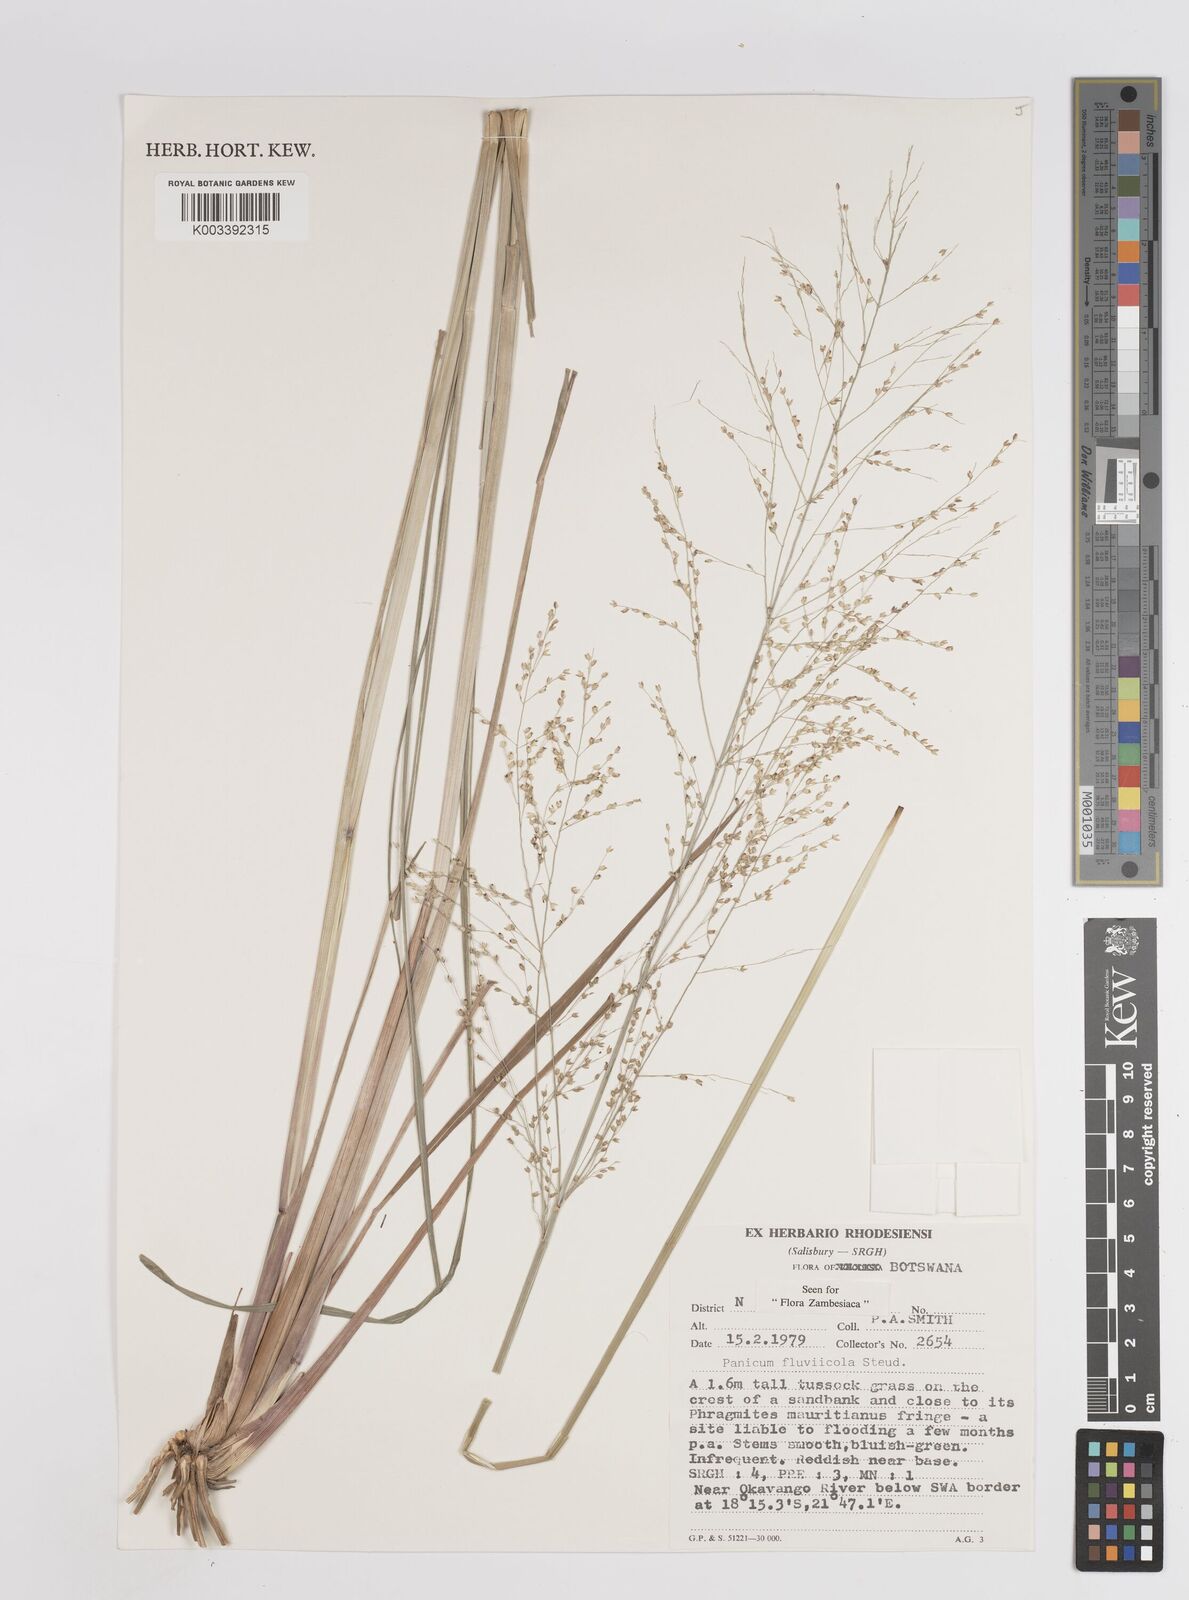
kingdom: Plantae
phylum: Tracheophyta
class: Liliopsida
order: Poales
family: Poaceae
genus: Panicum
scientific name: Panicum fluviicola
